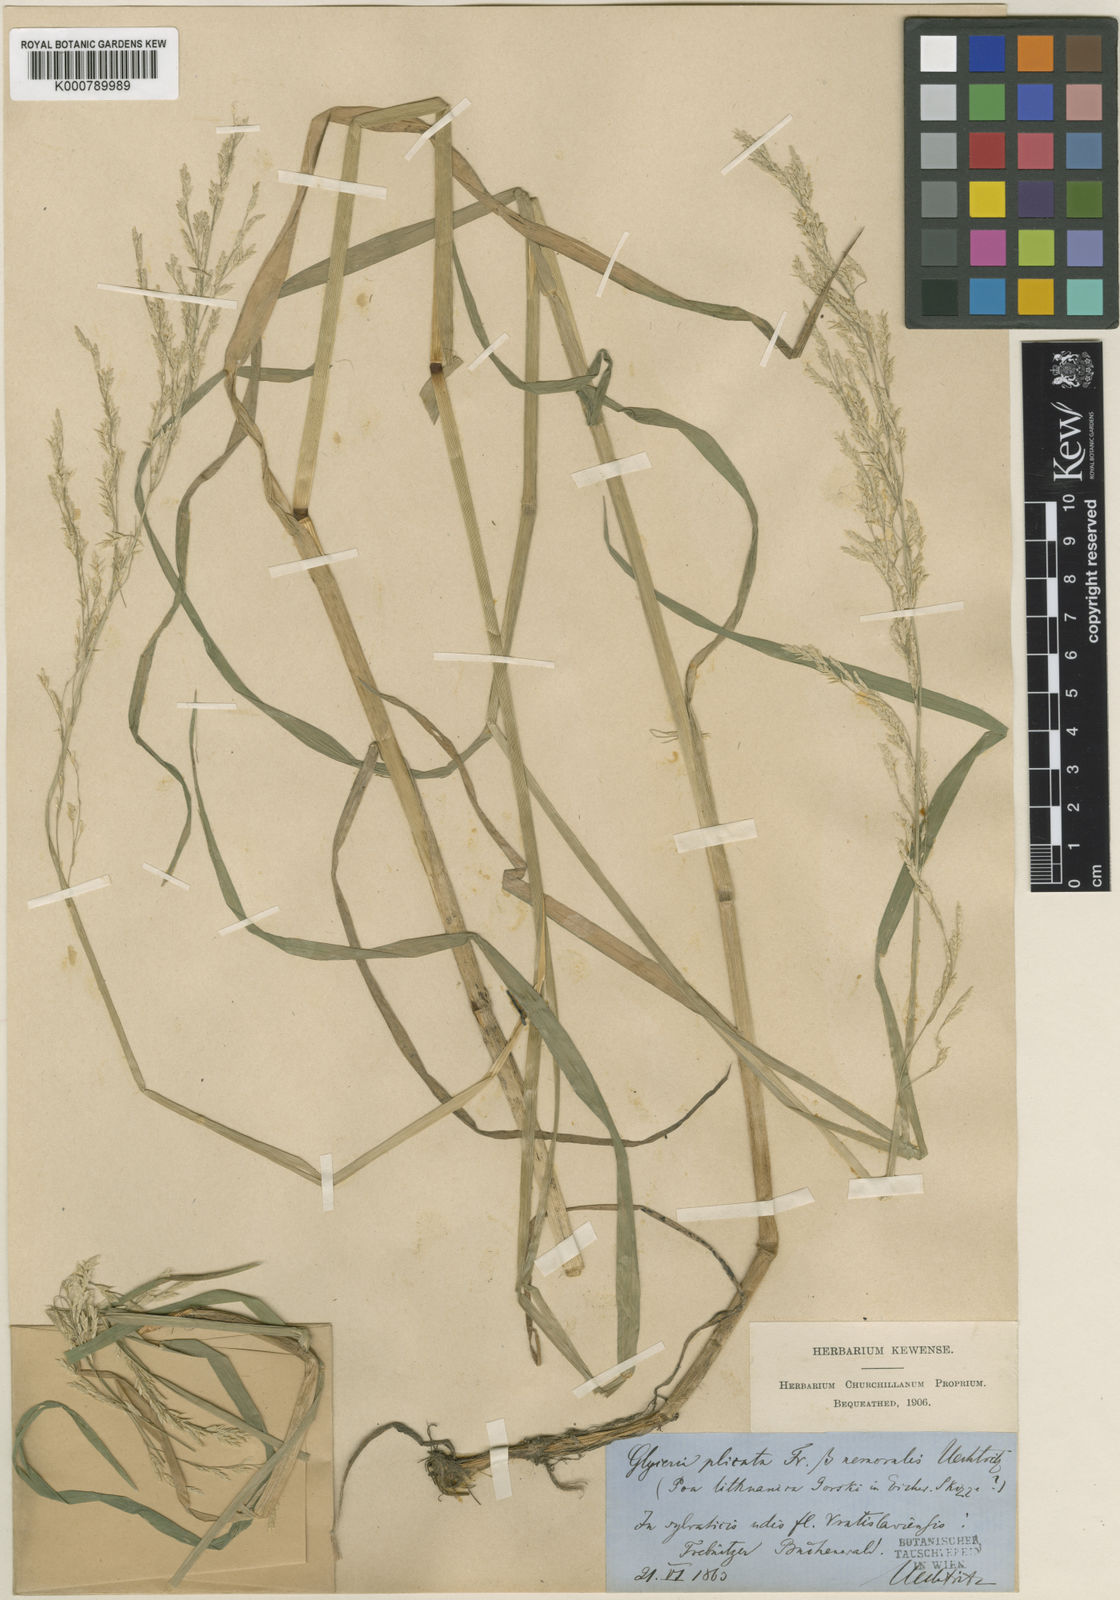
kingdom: Plantae
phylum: Tracheophyta
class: Liliopsida
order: Poales
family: Poaceae
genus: Glyceria
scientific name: Glyceria
